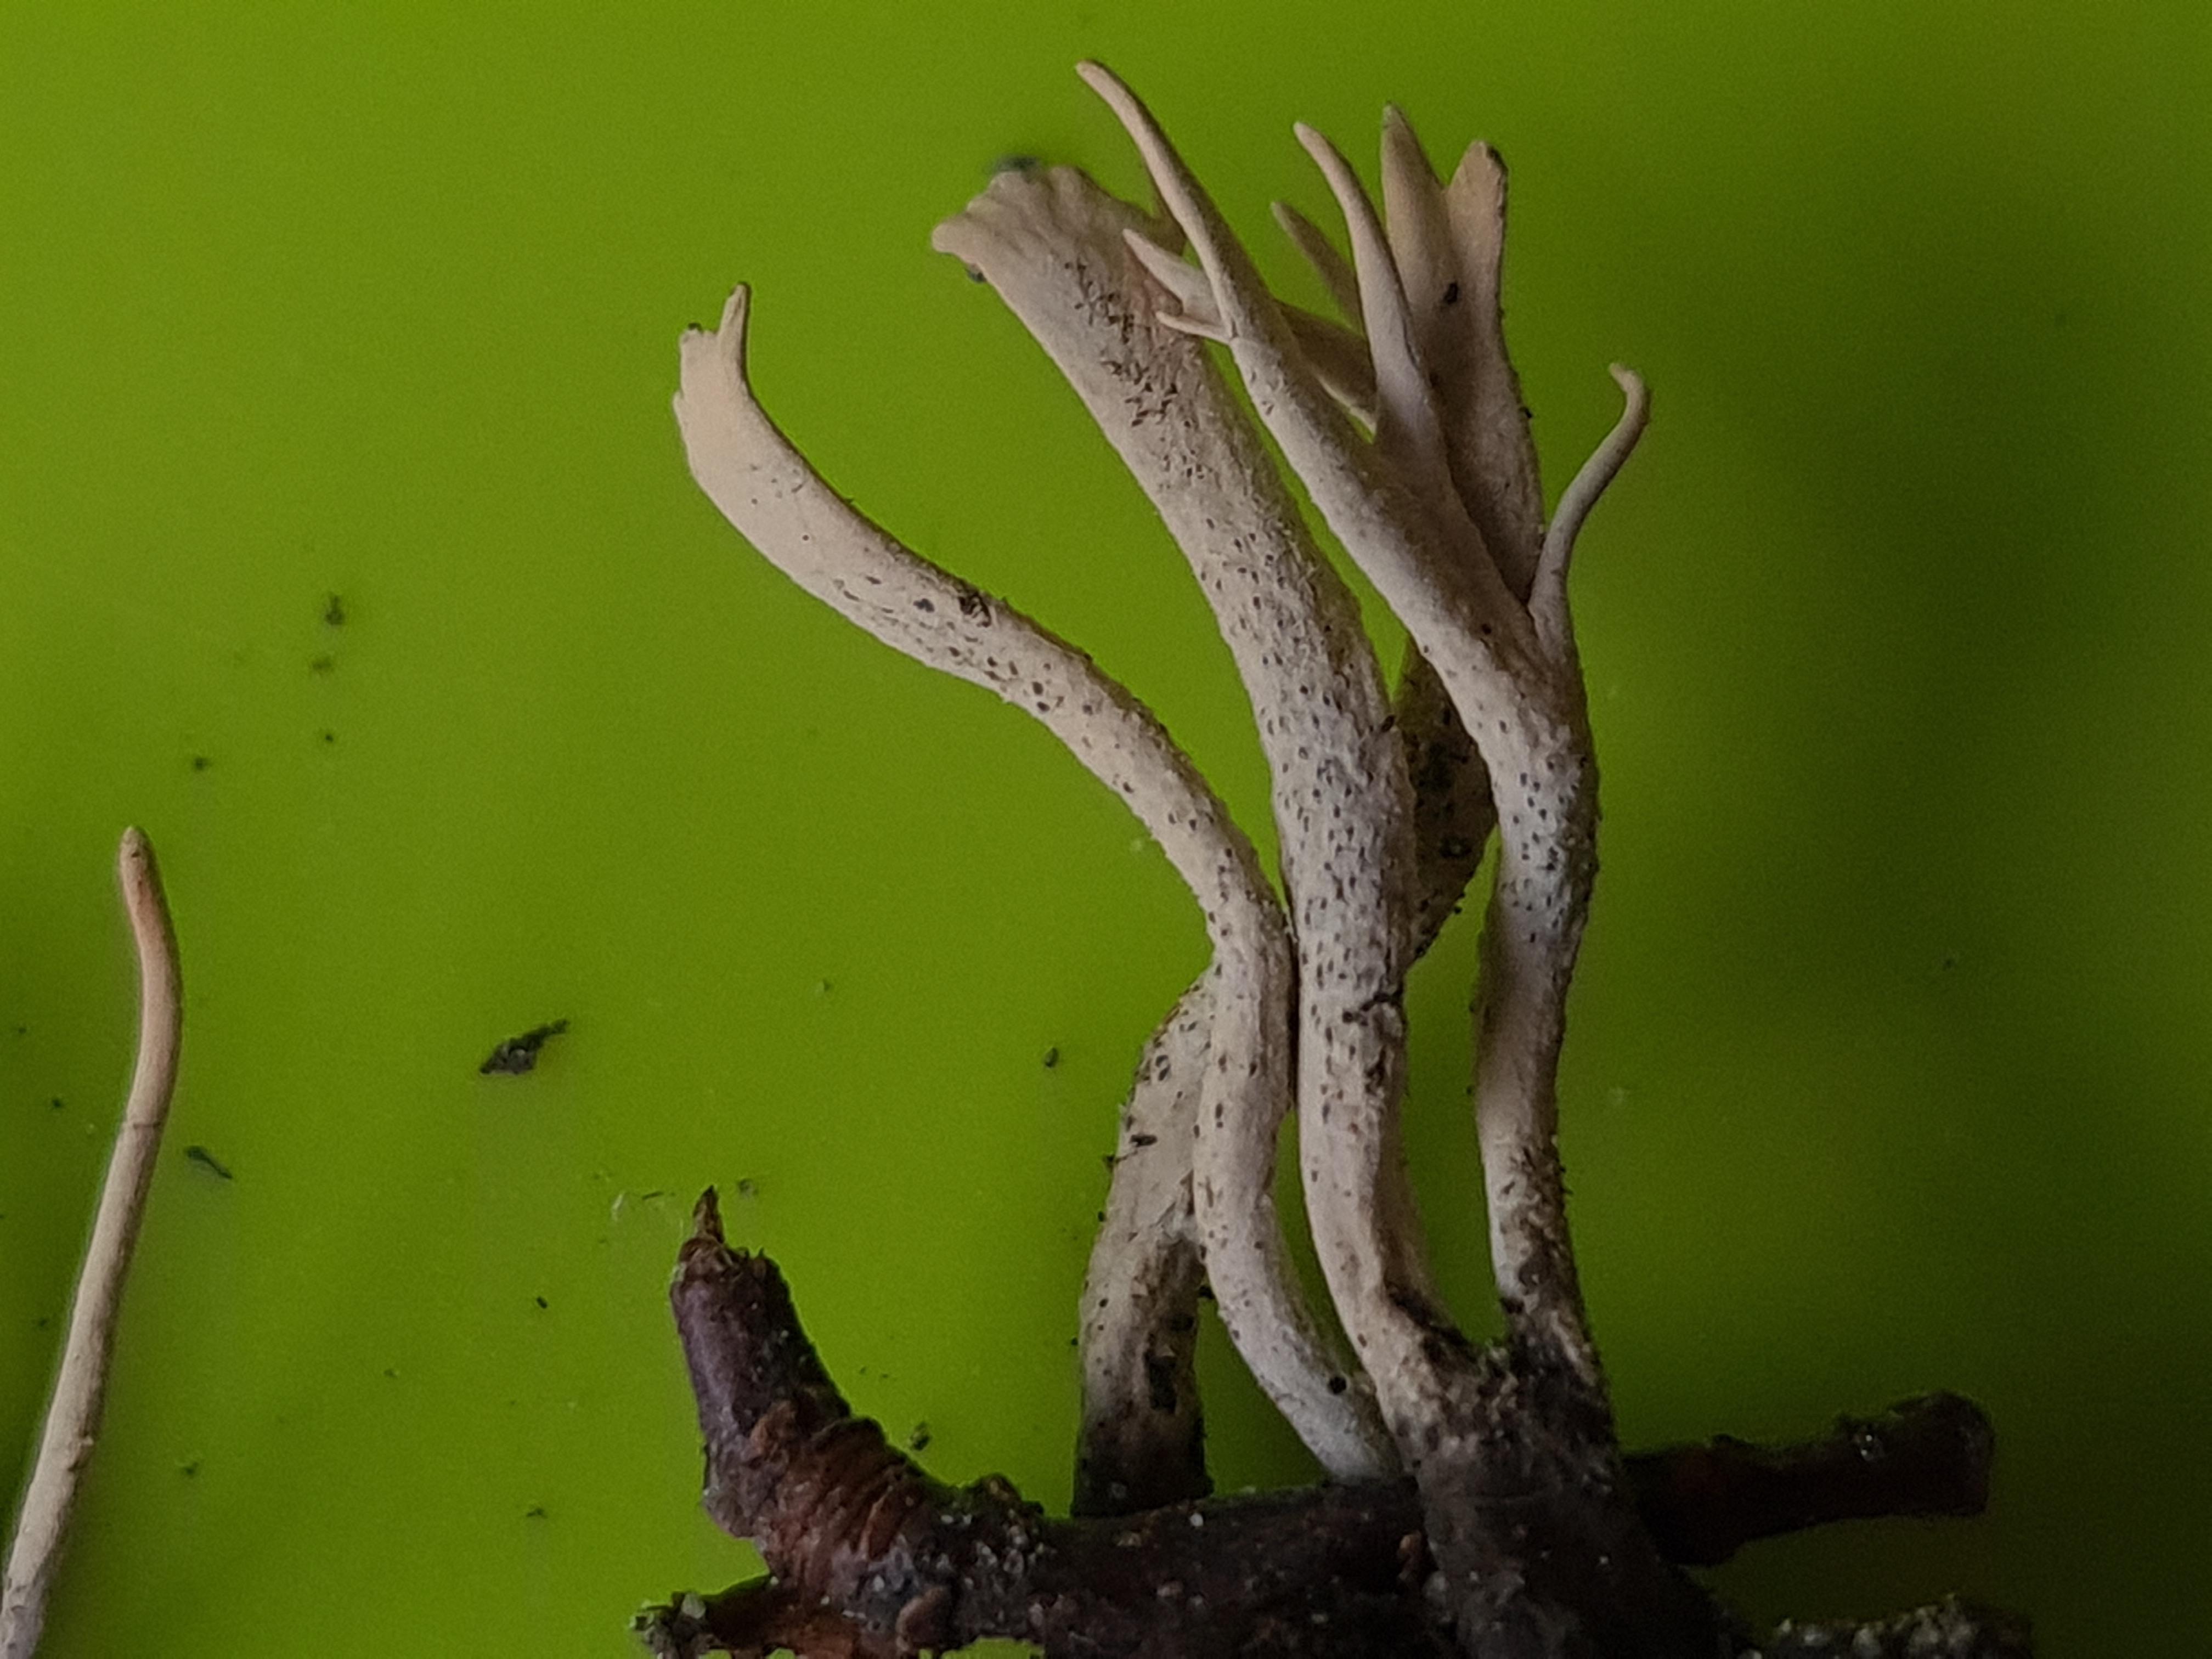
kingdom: Fungi
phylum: Ascomycota
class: Sordariomycetes
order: Xylariales
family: Xylariaceae
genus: Xylaria
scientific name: Xylaria oxyacanthae
